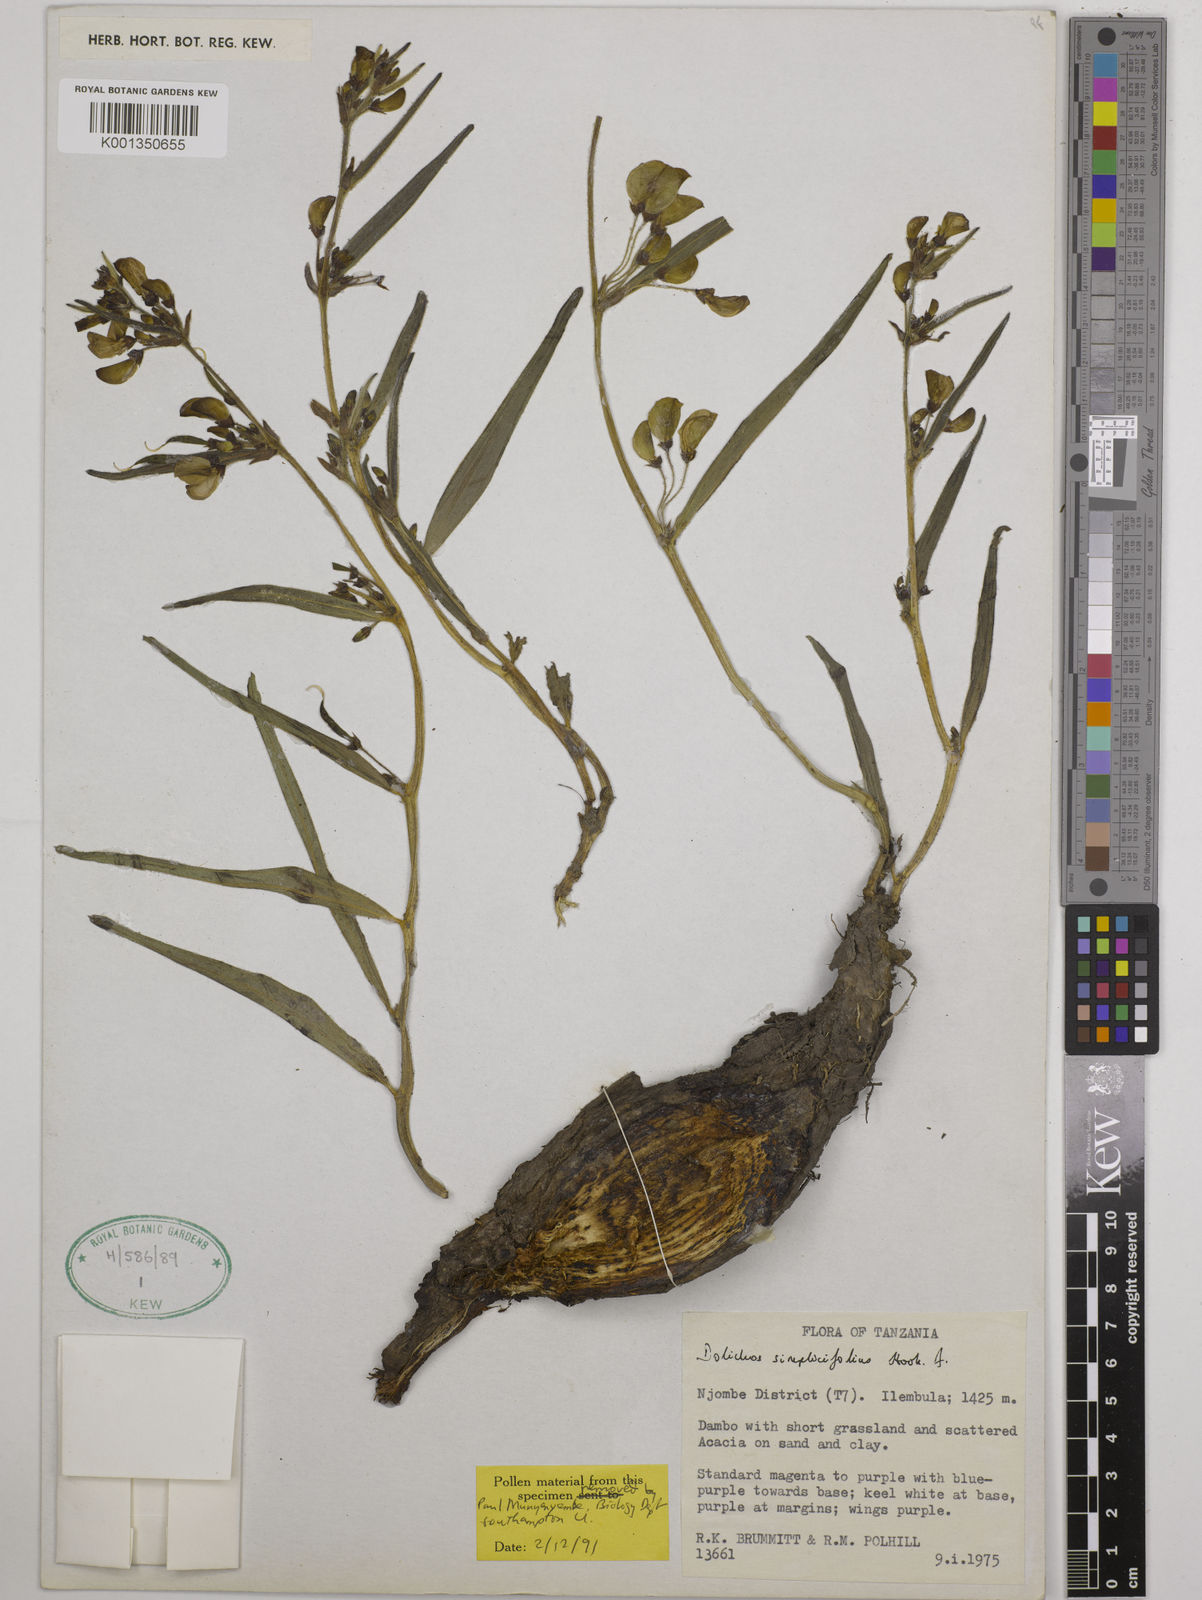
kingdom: Plantae
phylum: Tracheophyta
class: Magnoliopsida
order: Fabales
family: Fabaceae
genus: Dolichos
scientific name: Dolichos simplicifolius
